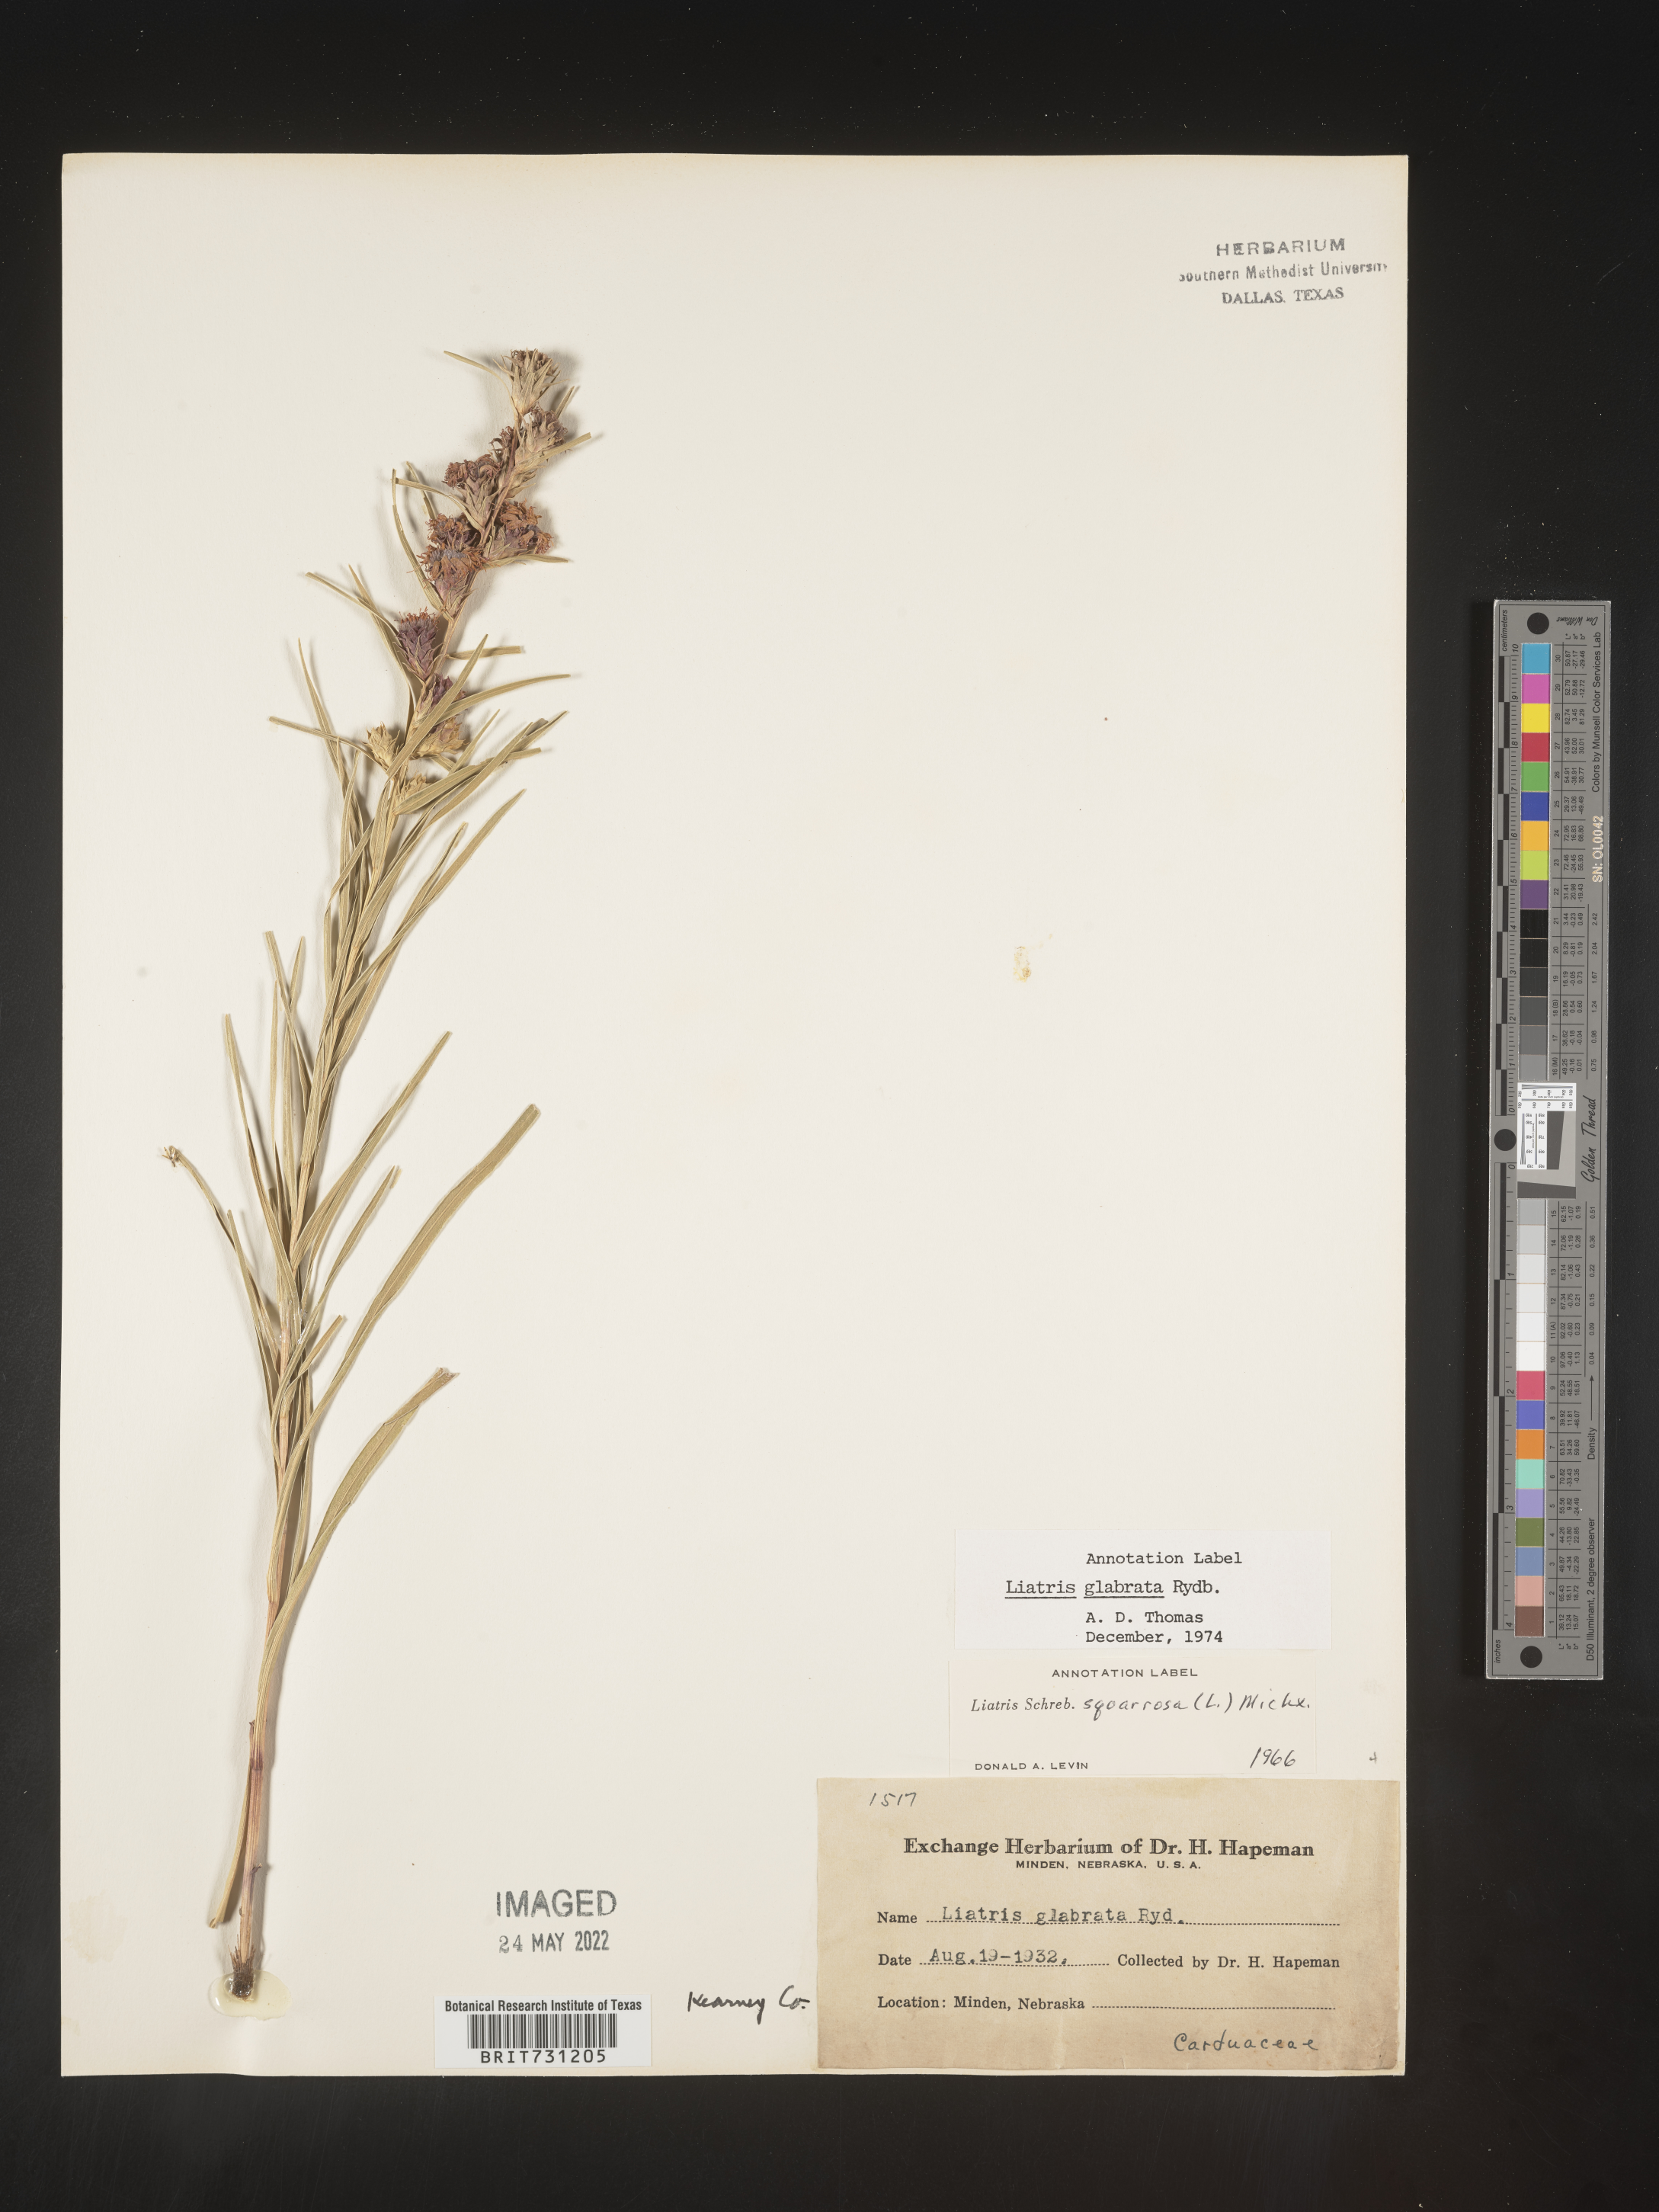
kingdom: Plantae
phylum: Tracheophyta
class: Magnoliopsida
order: Asterales
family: Asteraceae
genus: Liatris
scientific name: Liatris squarrosa
